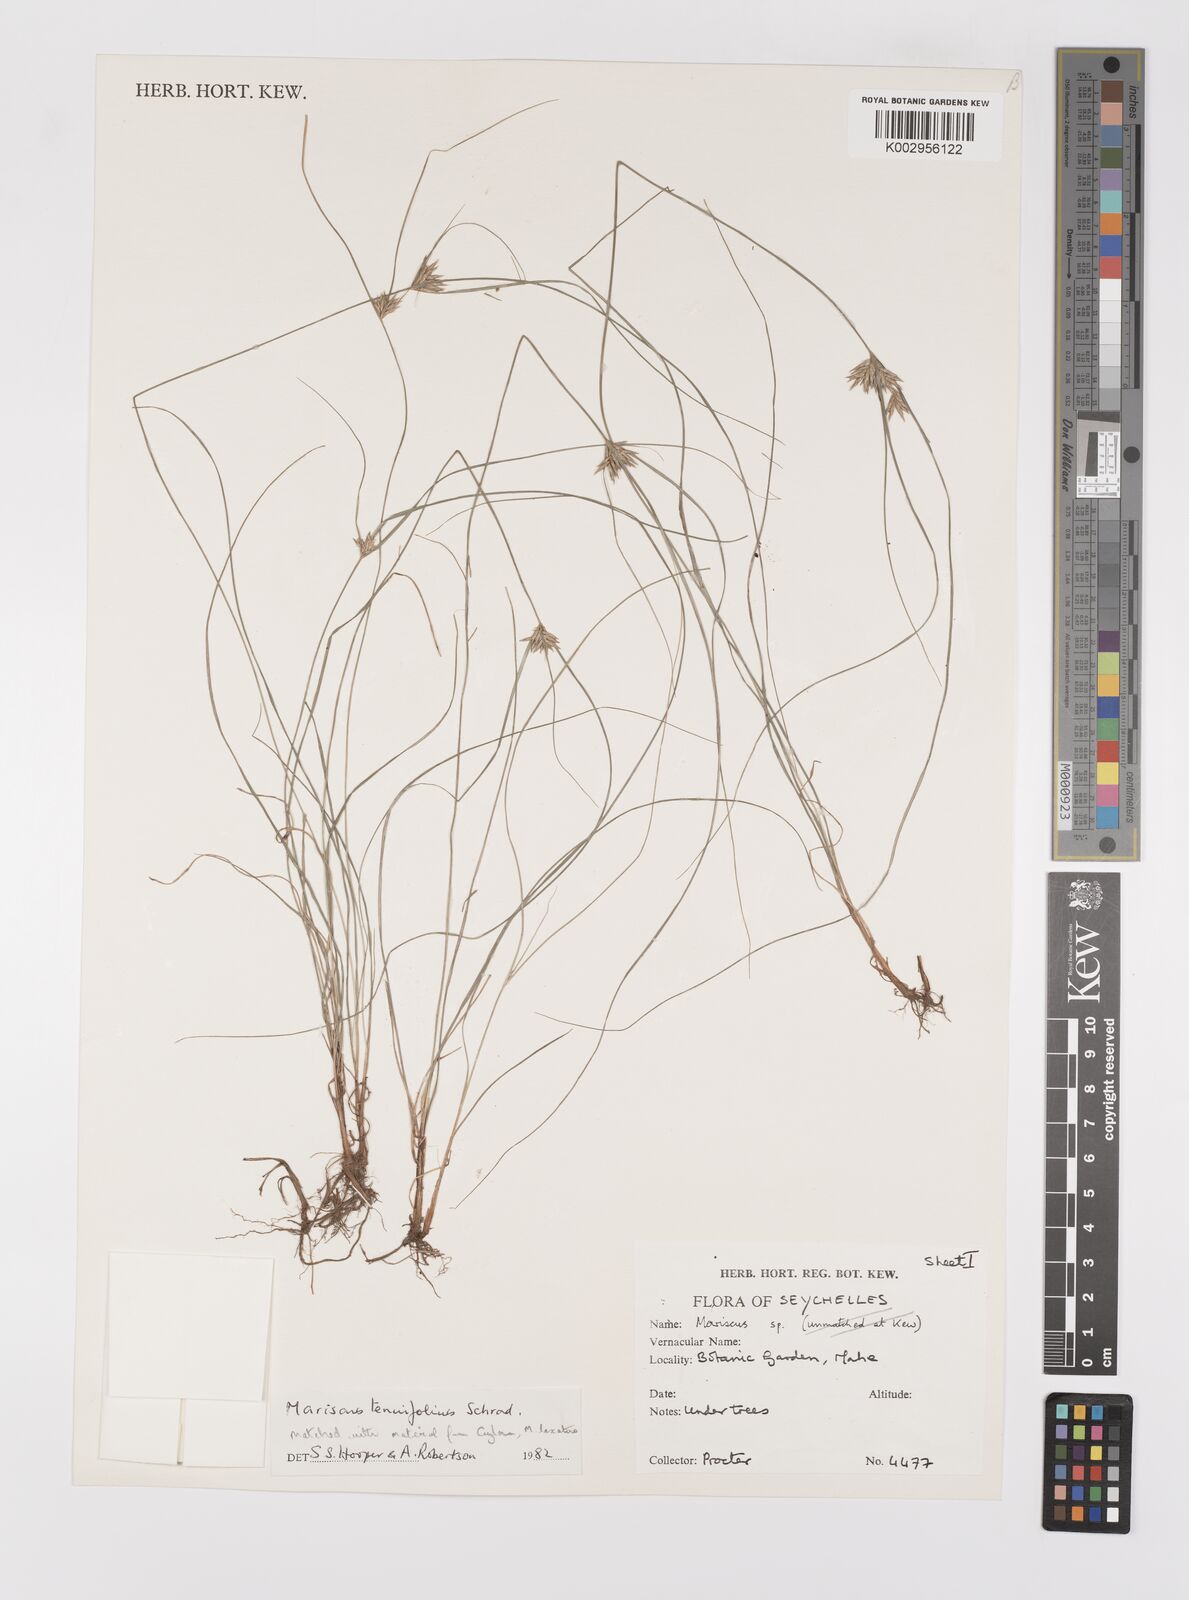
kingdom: Plantae
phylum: Tracheophyta
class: Liliopsida
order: Poales
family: Cyperaceae
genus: Cyperus
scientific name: Cyperus tenuifolius
